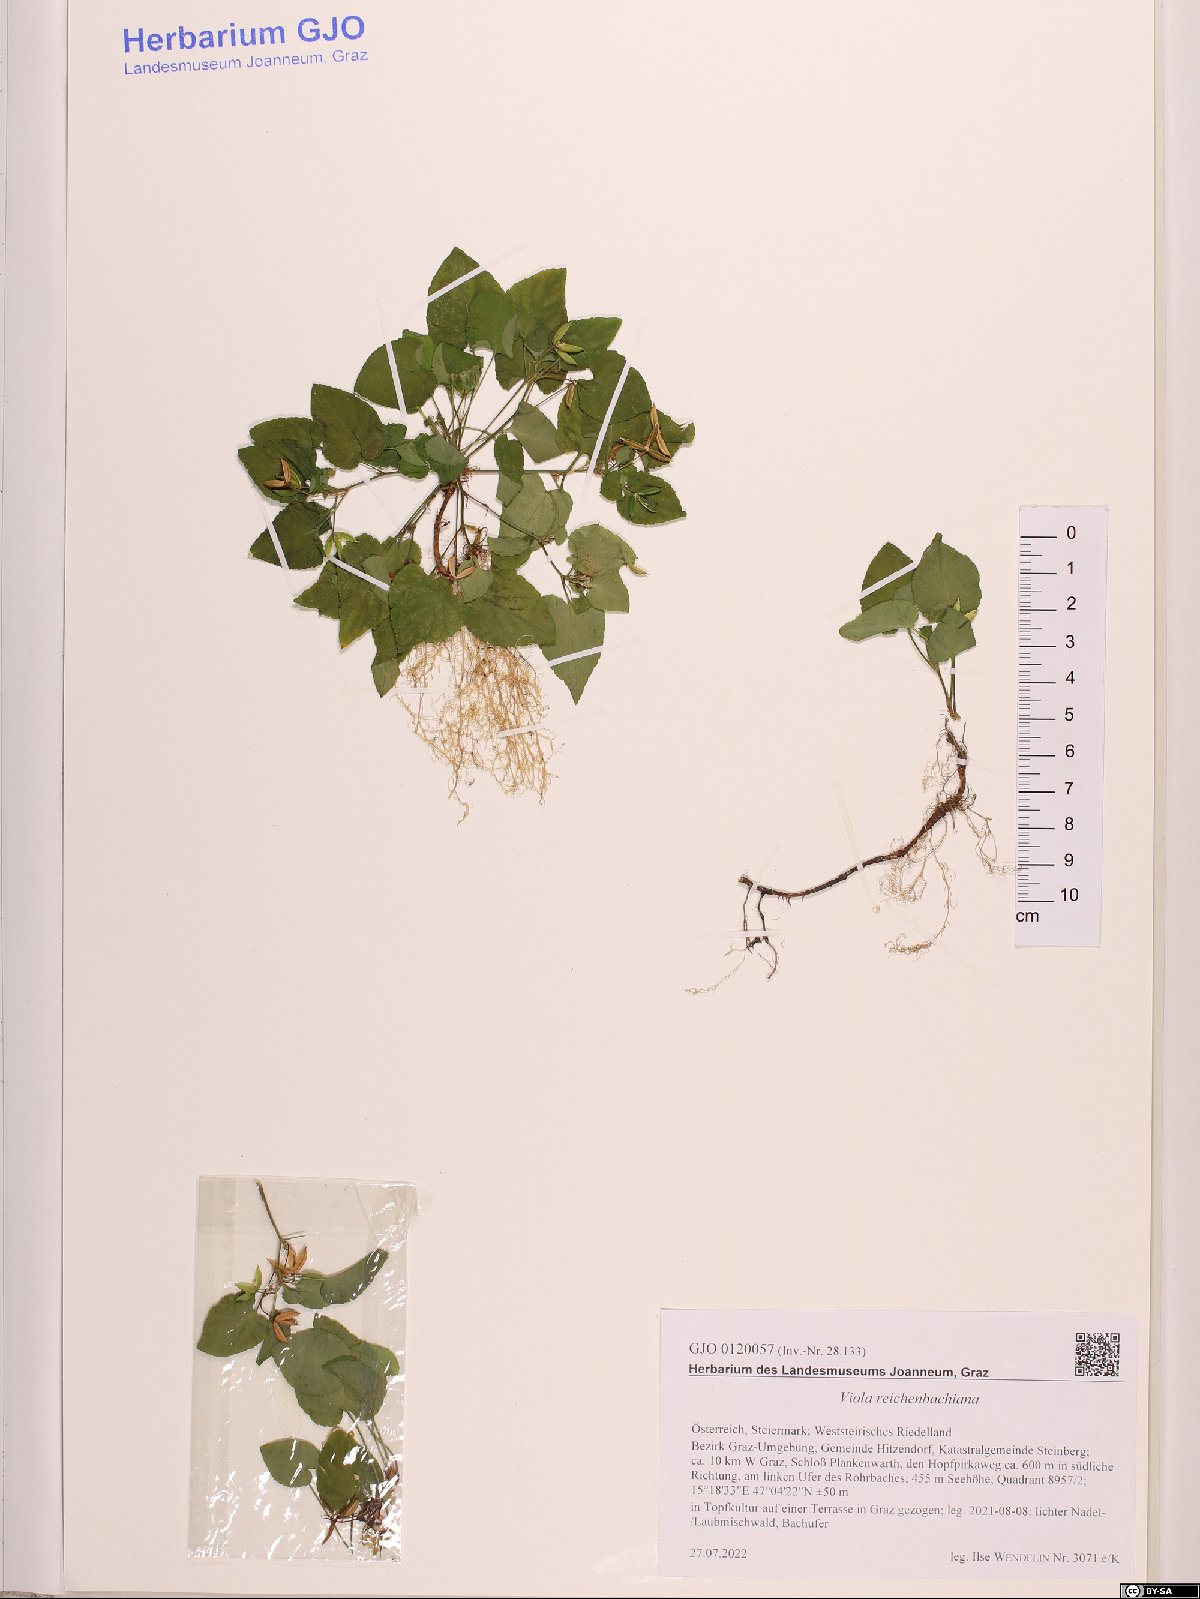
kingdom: Plantae
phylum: Tracheophyta
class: Magnoliopsida
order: Malpighiales
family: Violaceae
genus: Viola
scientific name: Viola riviniana
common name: Common dog-violet
